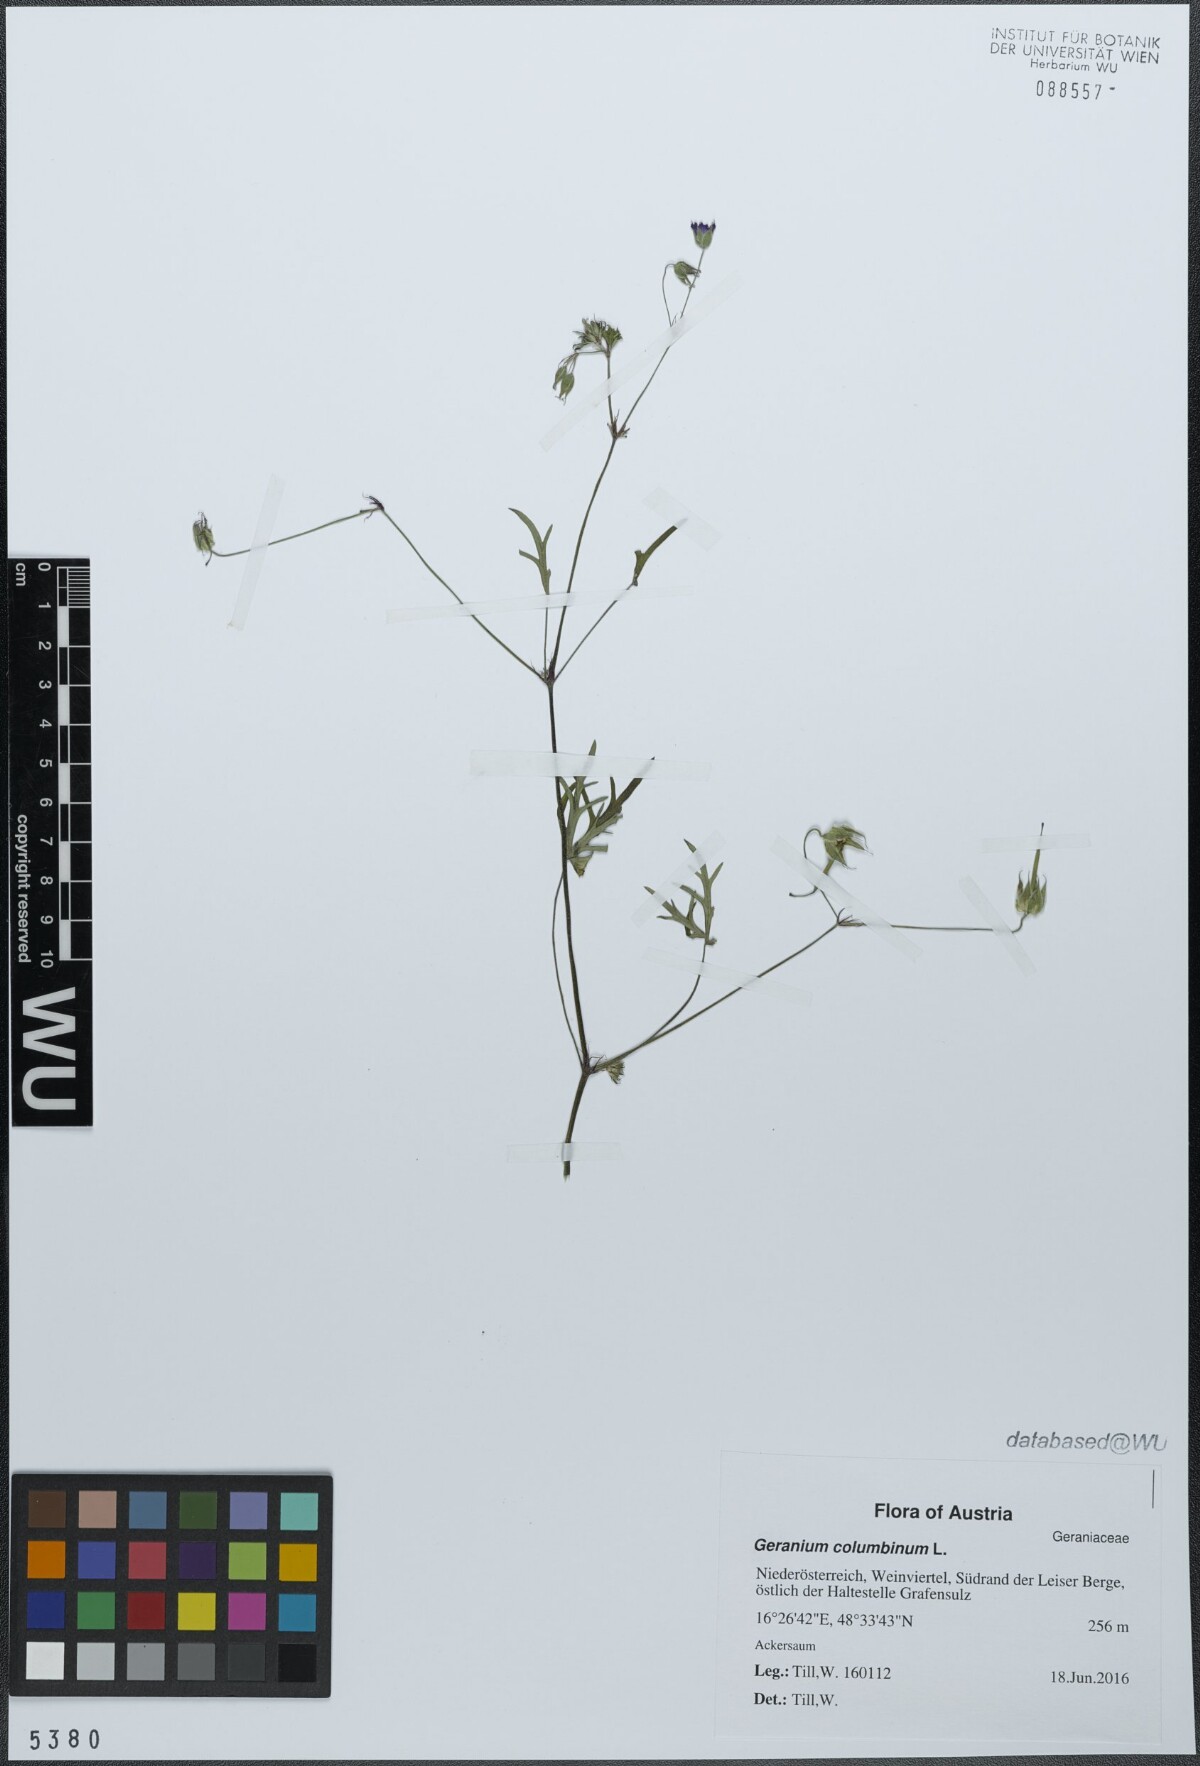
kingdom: Plantae
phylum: Tracheophyta
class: Magnoliopsida
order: Geraniales
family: Geraniaceae
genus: Geranium
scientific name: Geranium columbinum
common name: Long-stalked crane's-bill
